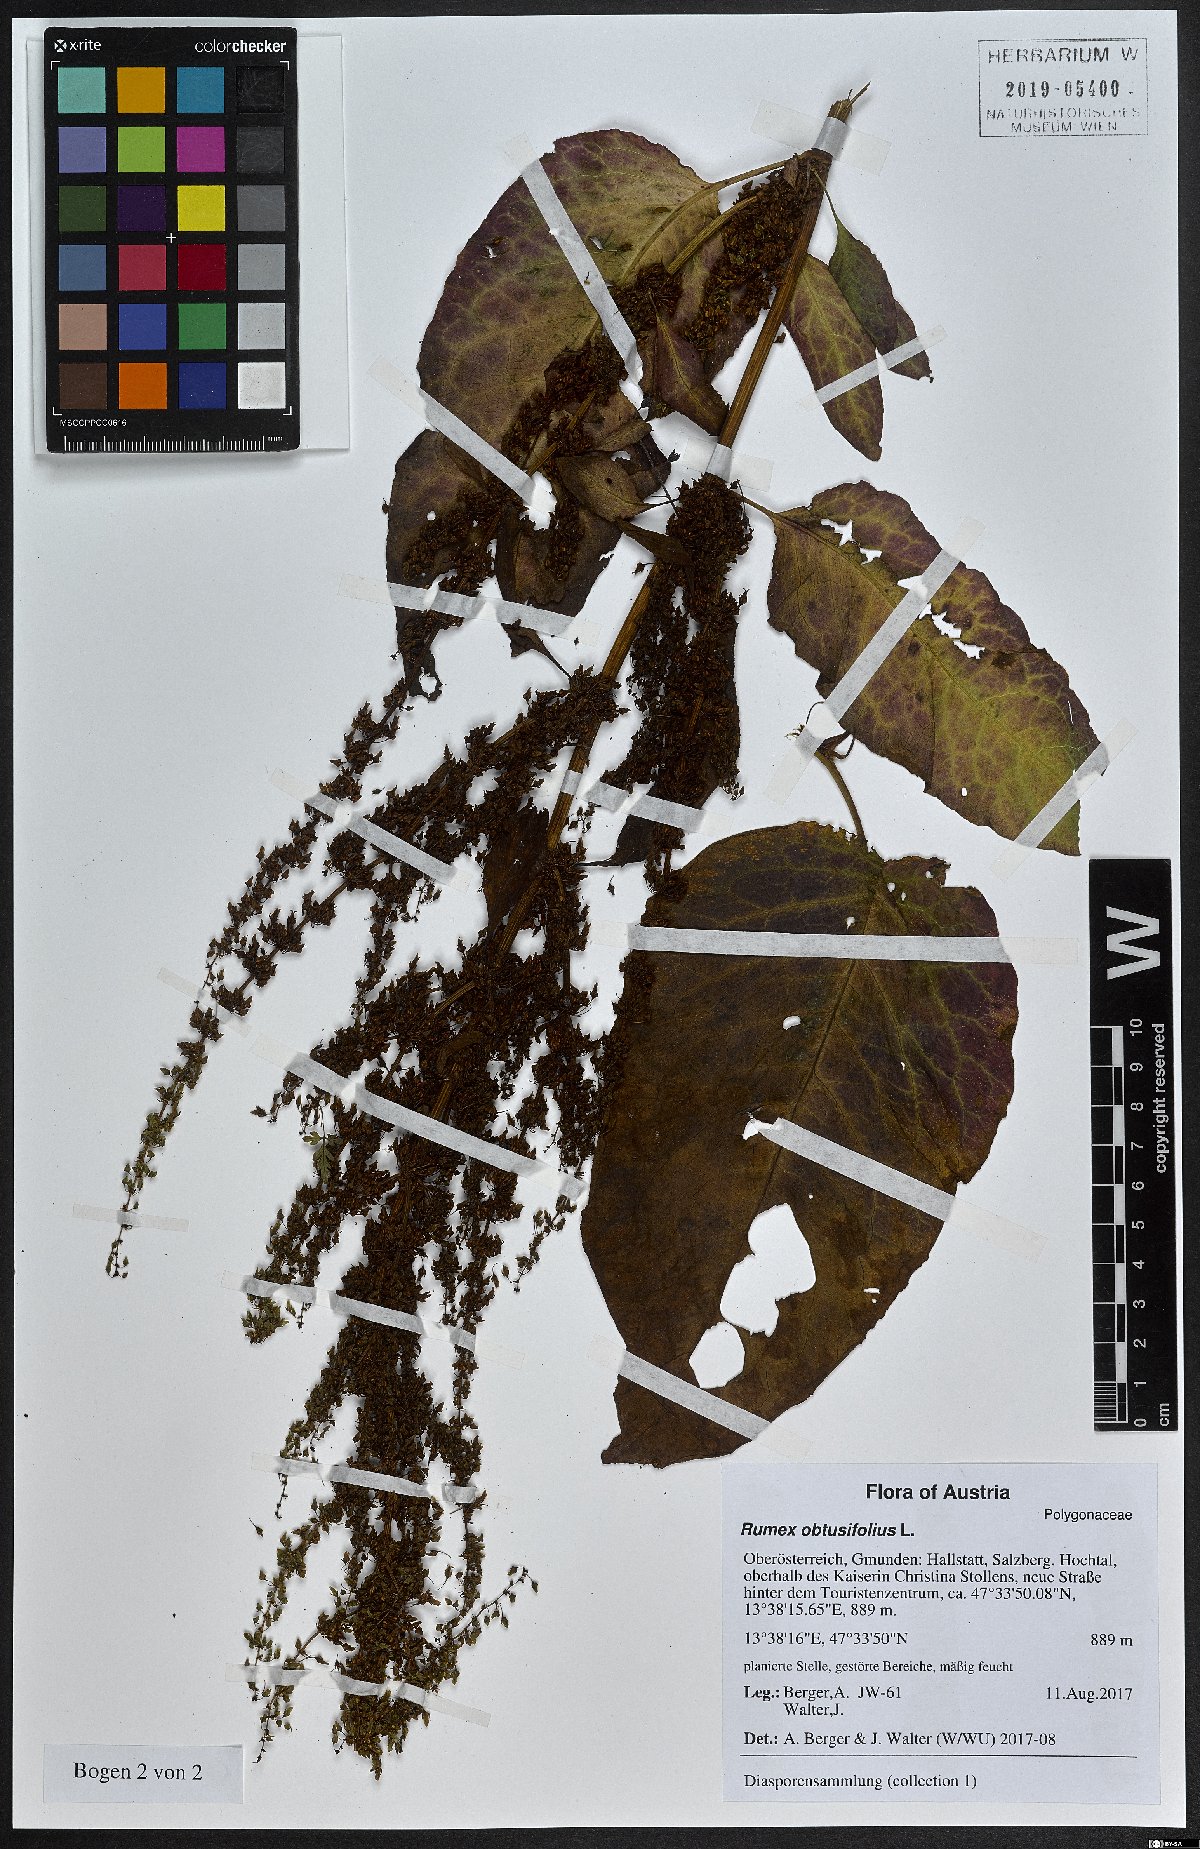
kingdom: Plantae
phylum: Tracheophyta
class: Magnoliopsida
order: Caryophyllales
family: Polygonaceae
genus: Rumex
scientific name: Rumex obtusifolius
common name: Bitter dock
